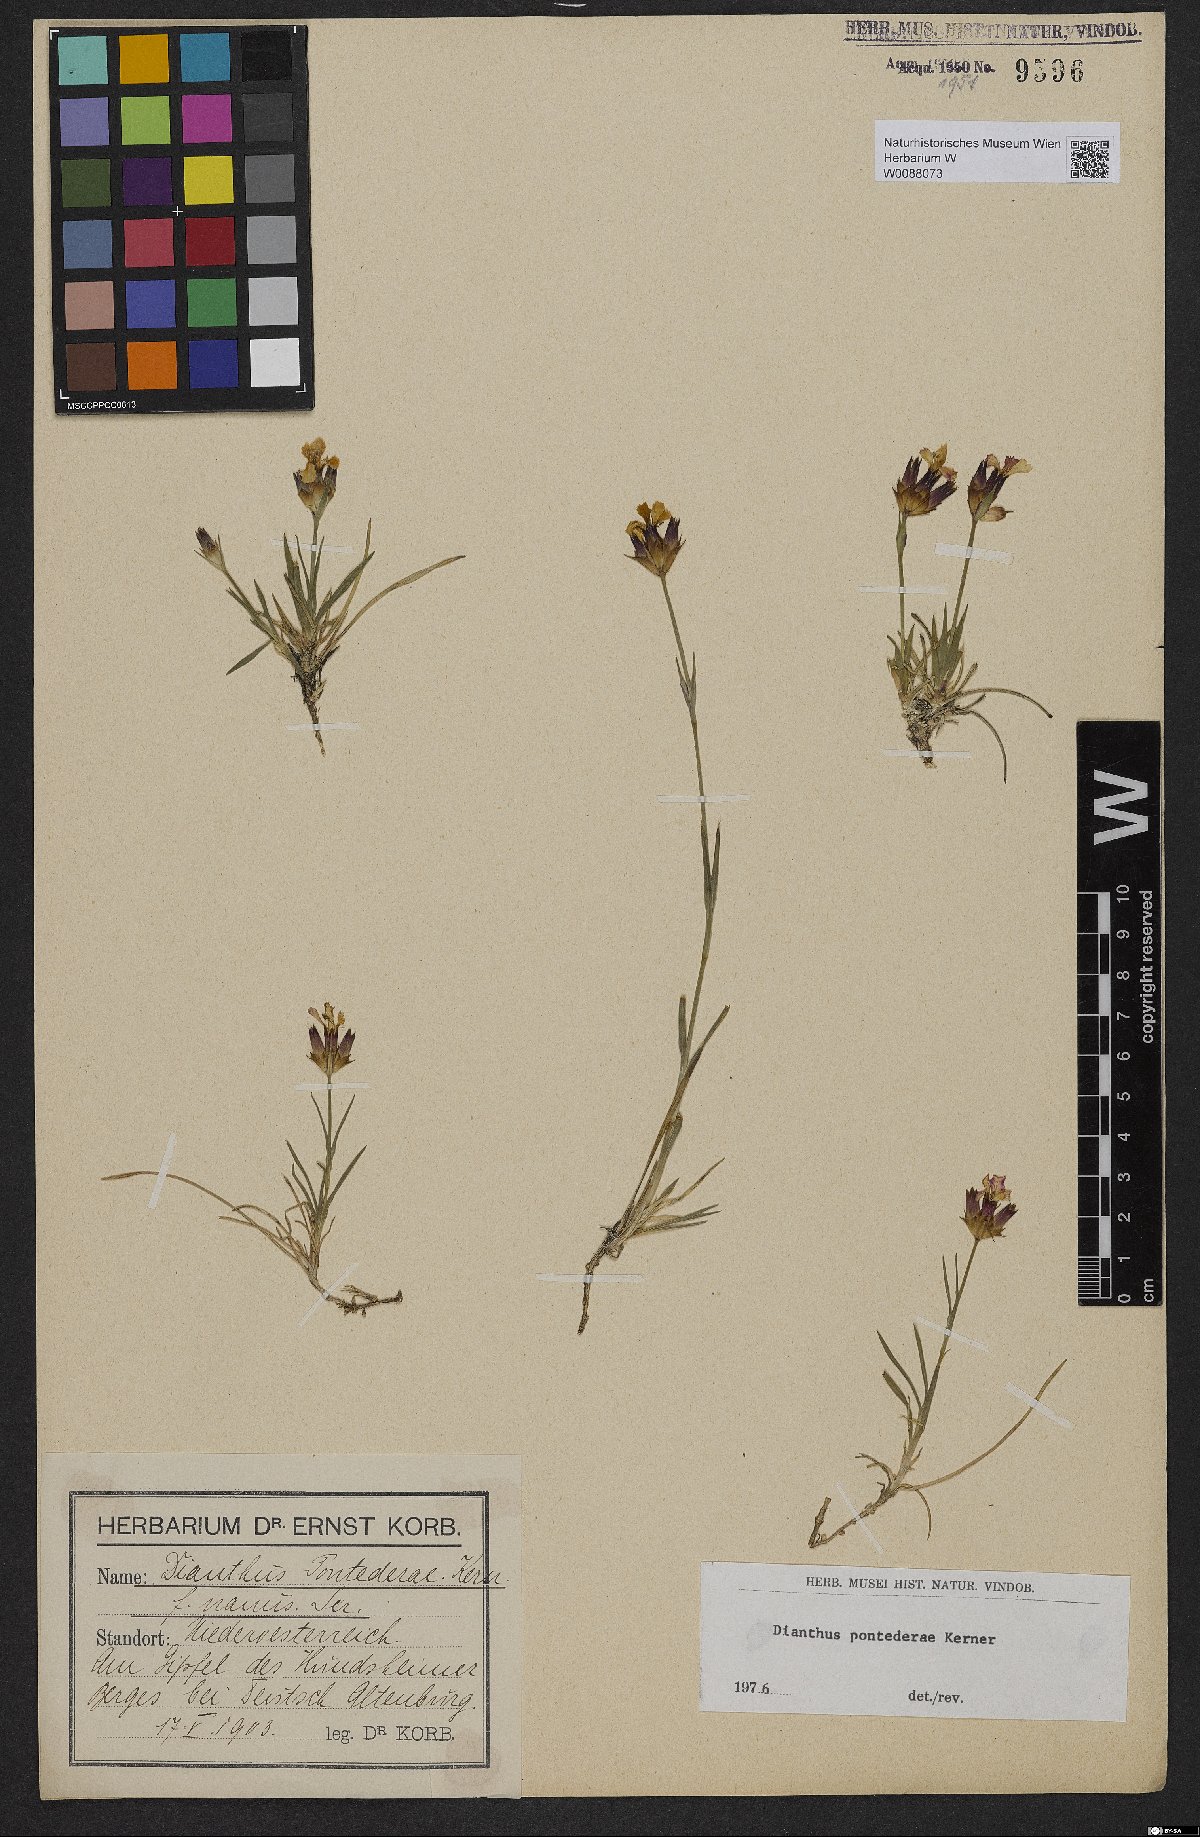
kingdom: Plantae
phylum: Tracheophyta
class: Magnoliopsida
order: Caryophyllales
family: Caryophyllaceae
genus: Dianthus
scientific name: Dianthus pontederae
